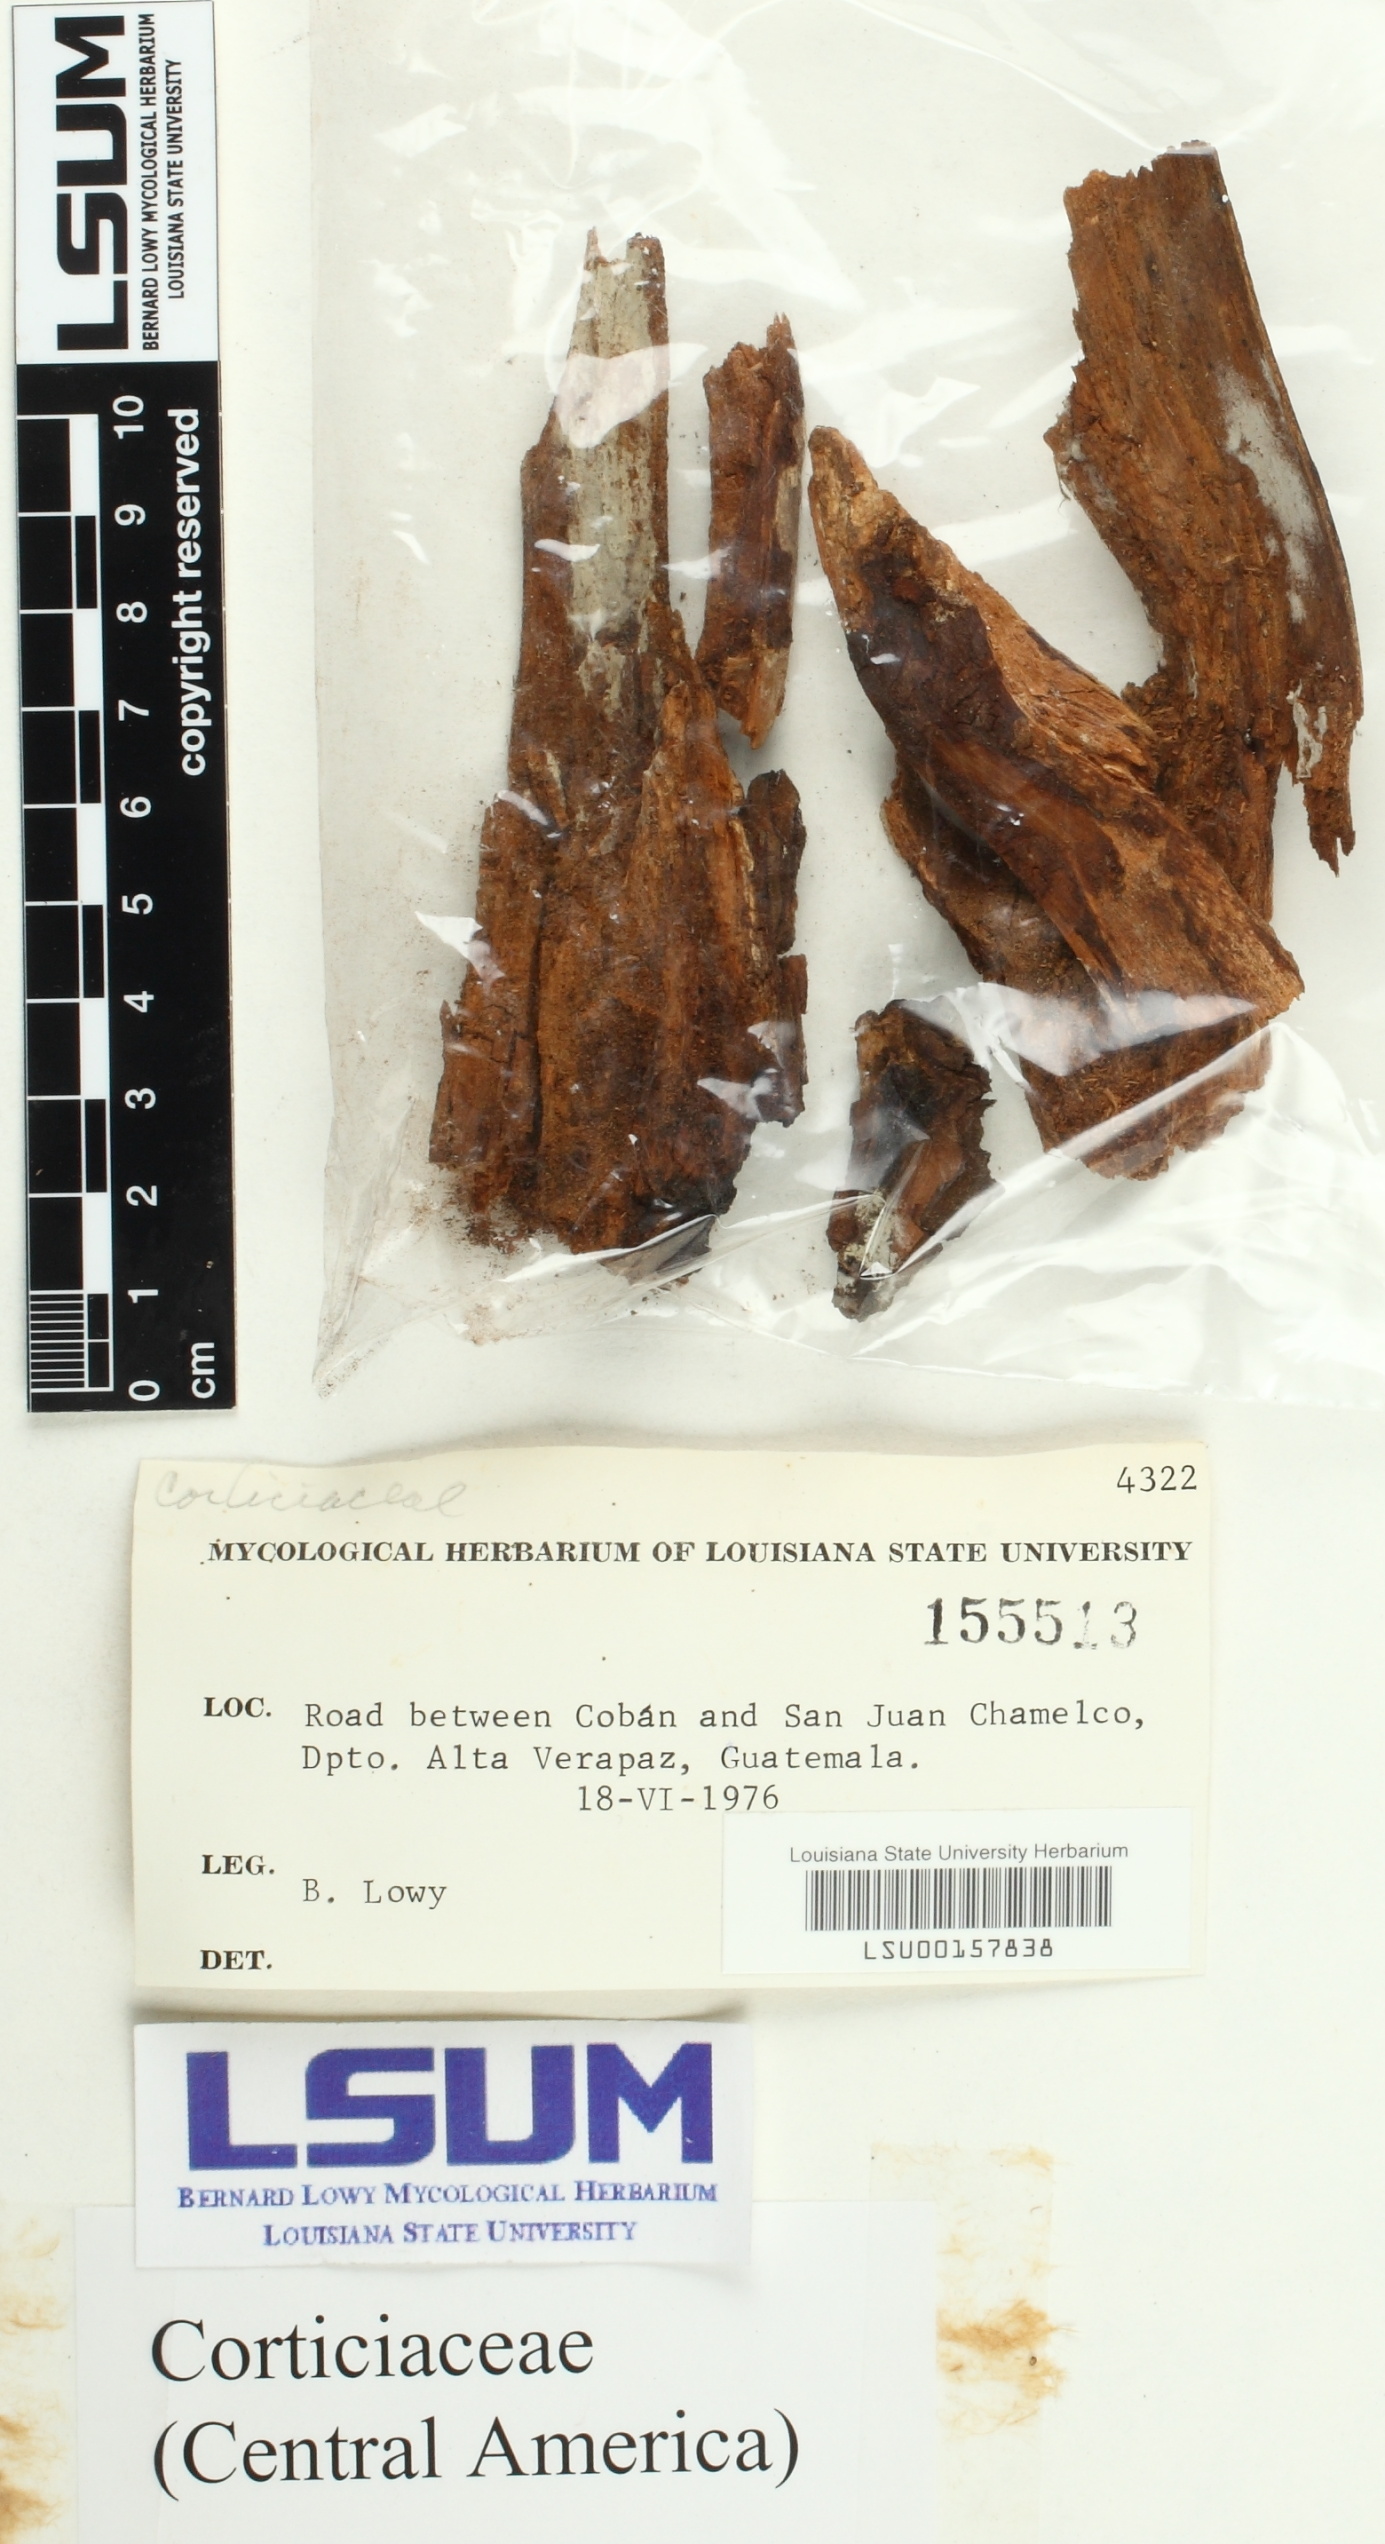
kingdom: Fungi
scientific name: Fungi
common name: Fungi
